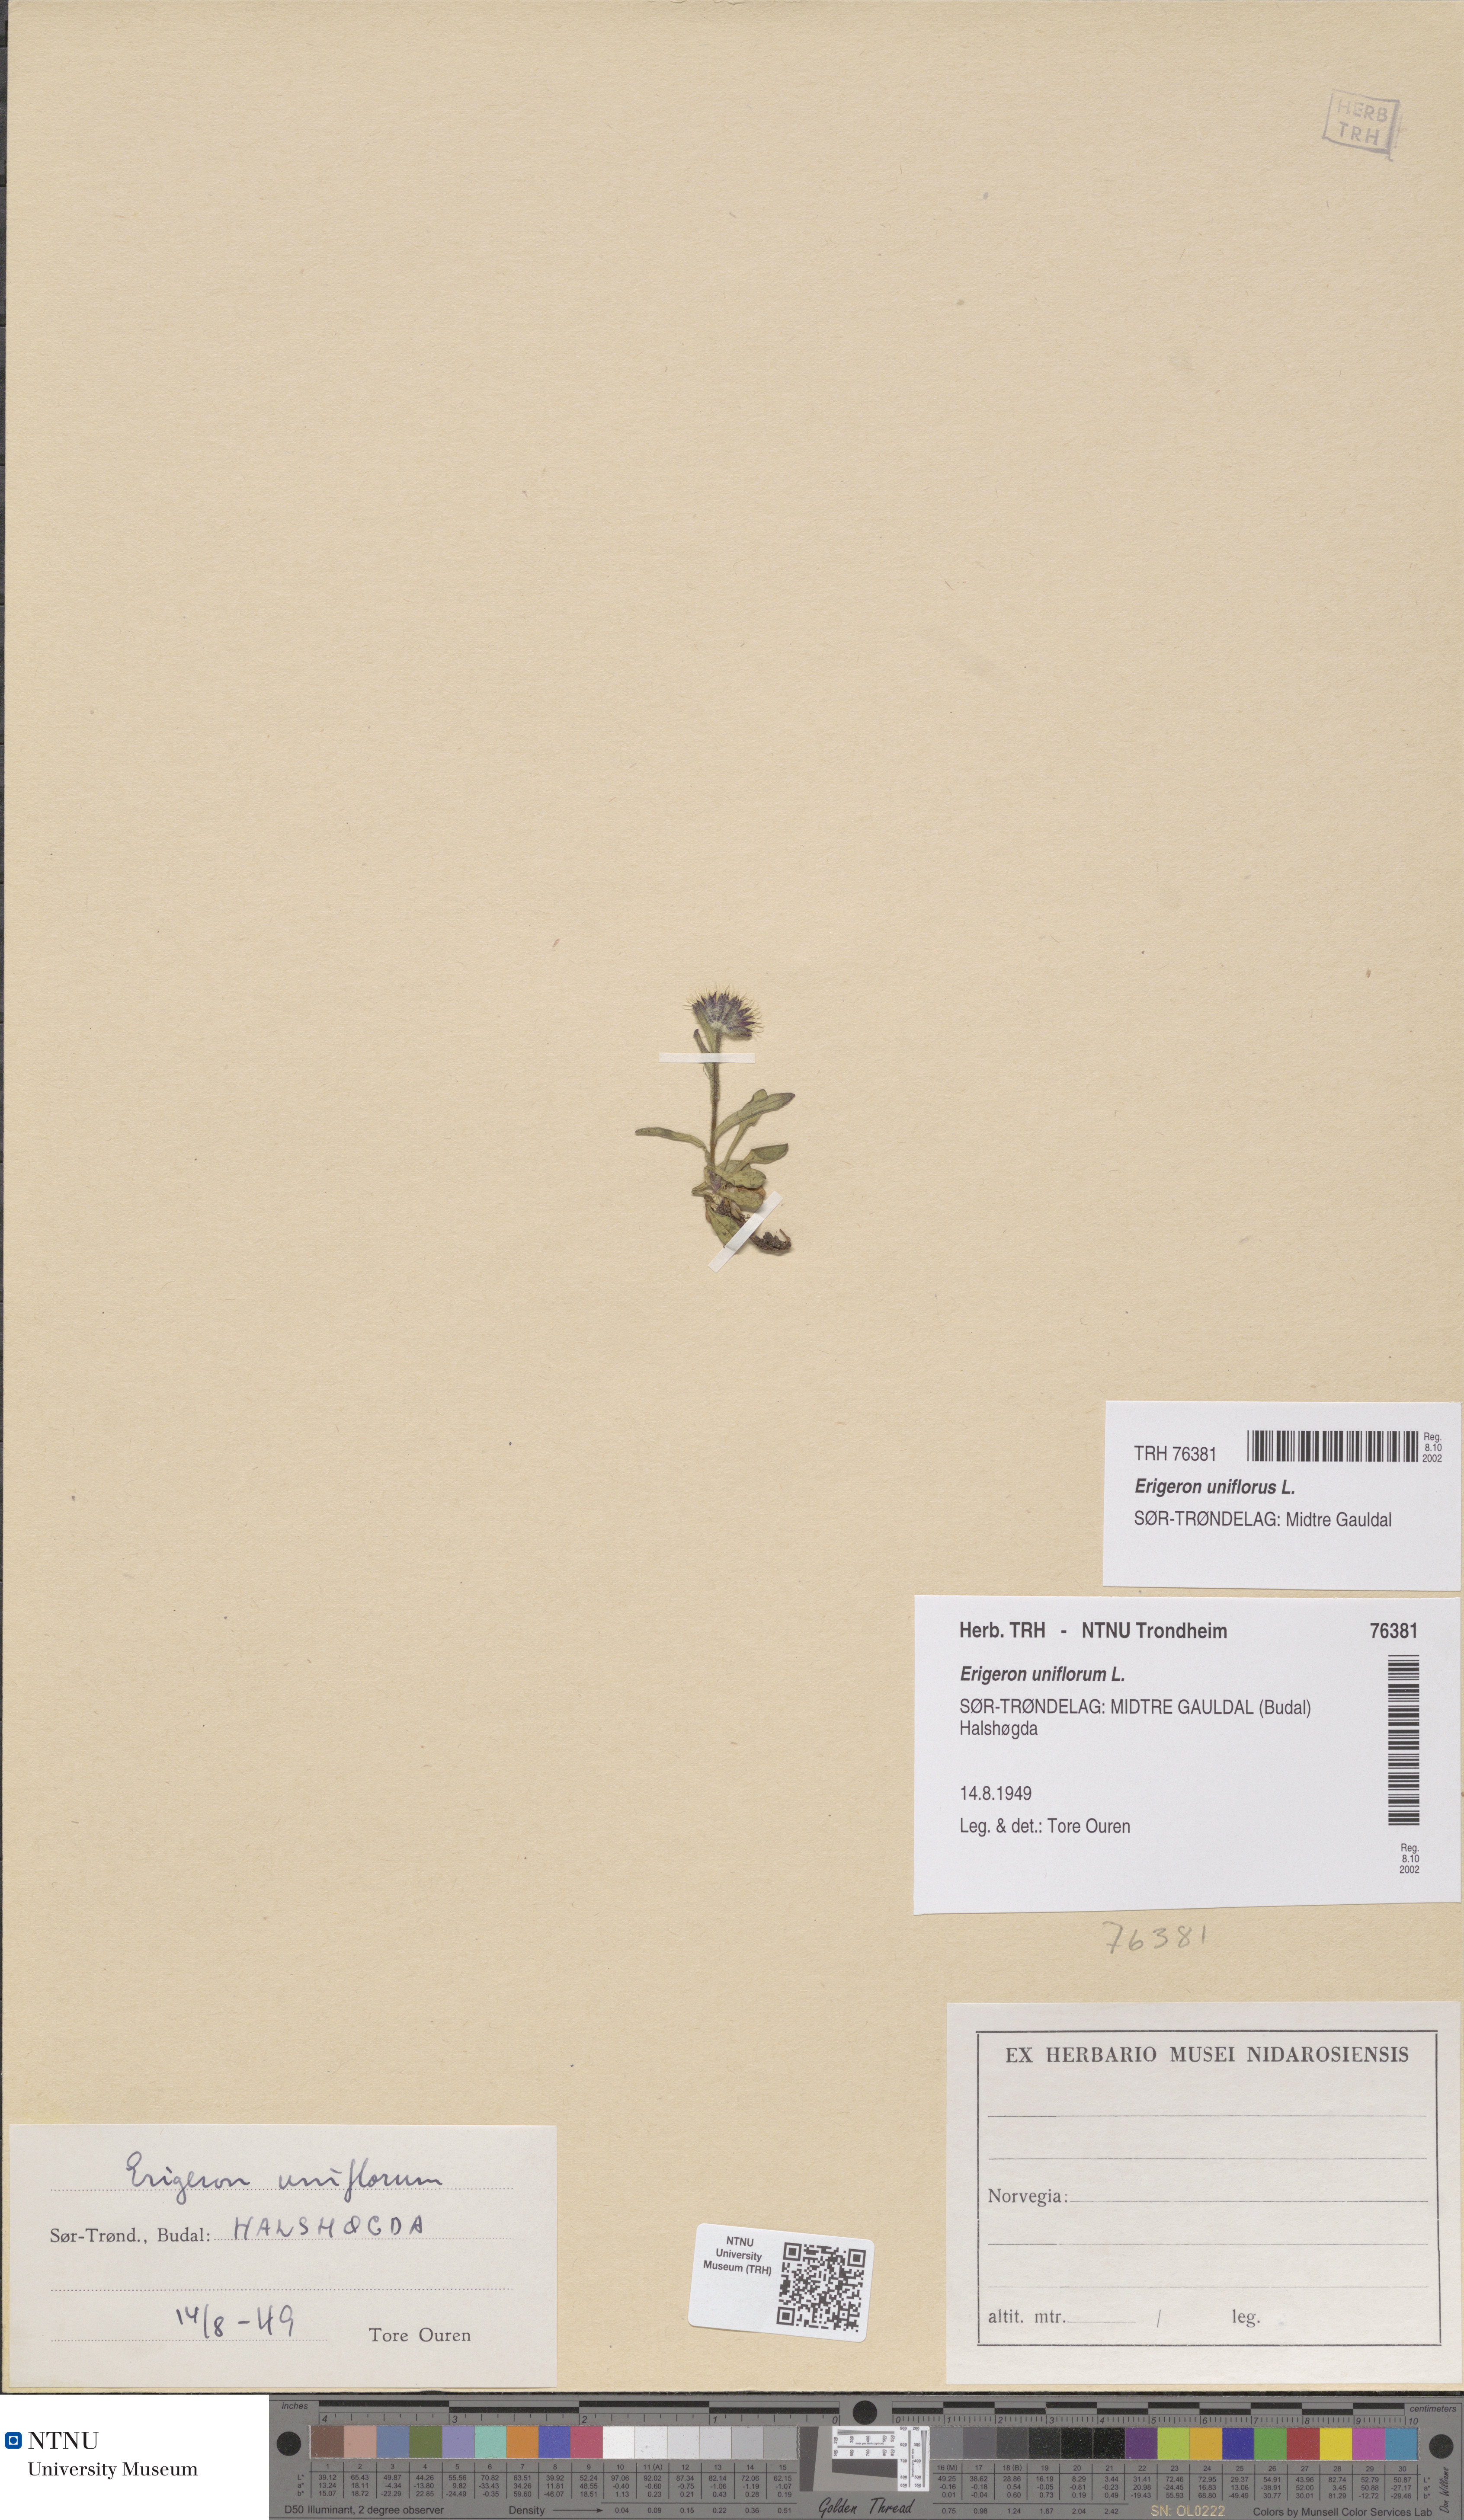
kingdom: Plantae
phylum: Tracheophyta
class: Magnoliopsida
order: Asterales
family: Asteraceae
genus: Erigeron
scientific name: Erigeron uniflorus
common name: Northern daisy
